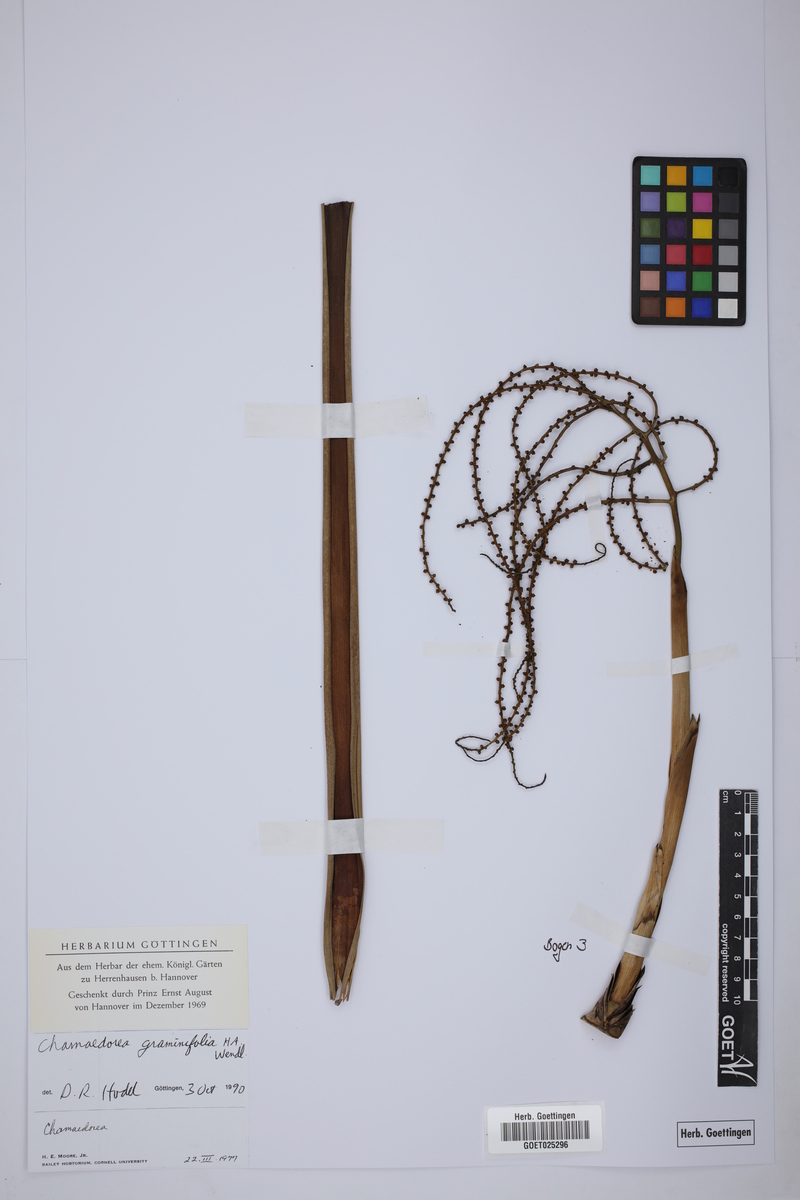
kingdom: Plantae
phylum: Tracheophyta
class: Liliopsida
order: Arecales
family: Arecaceae
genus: Chamaedorea
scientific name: Chamaedorea graminifolia
